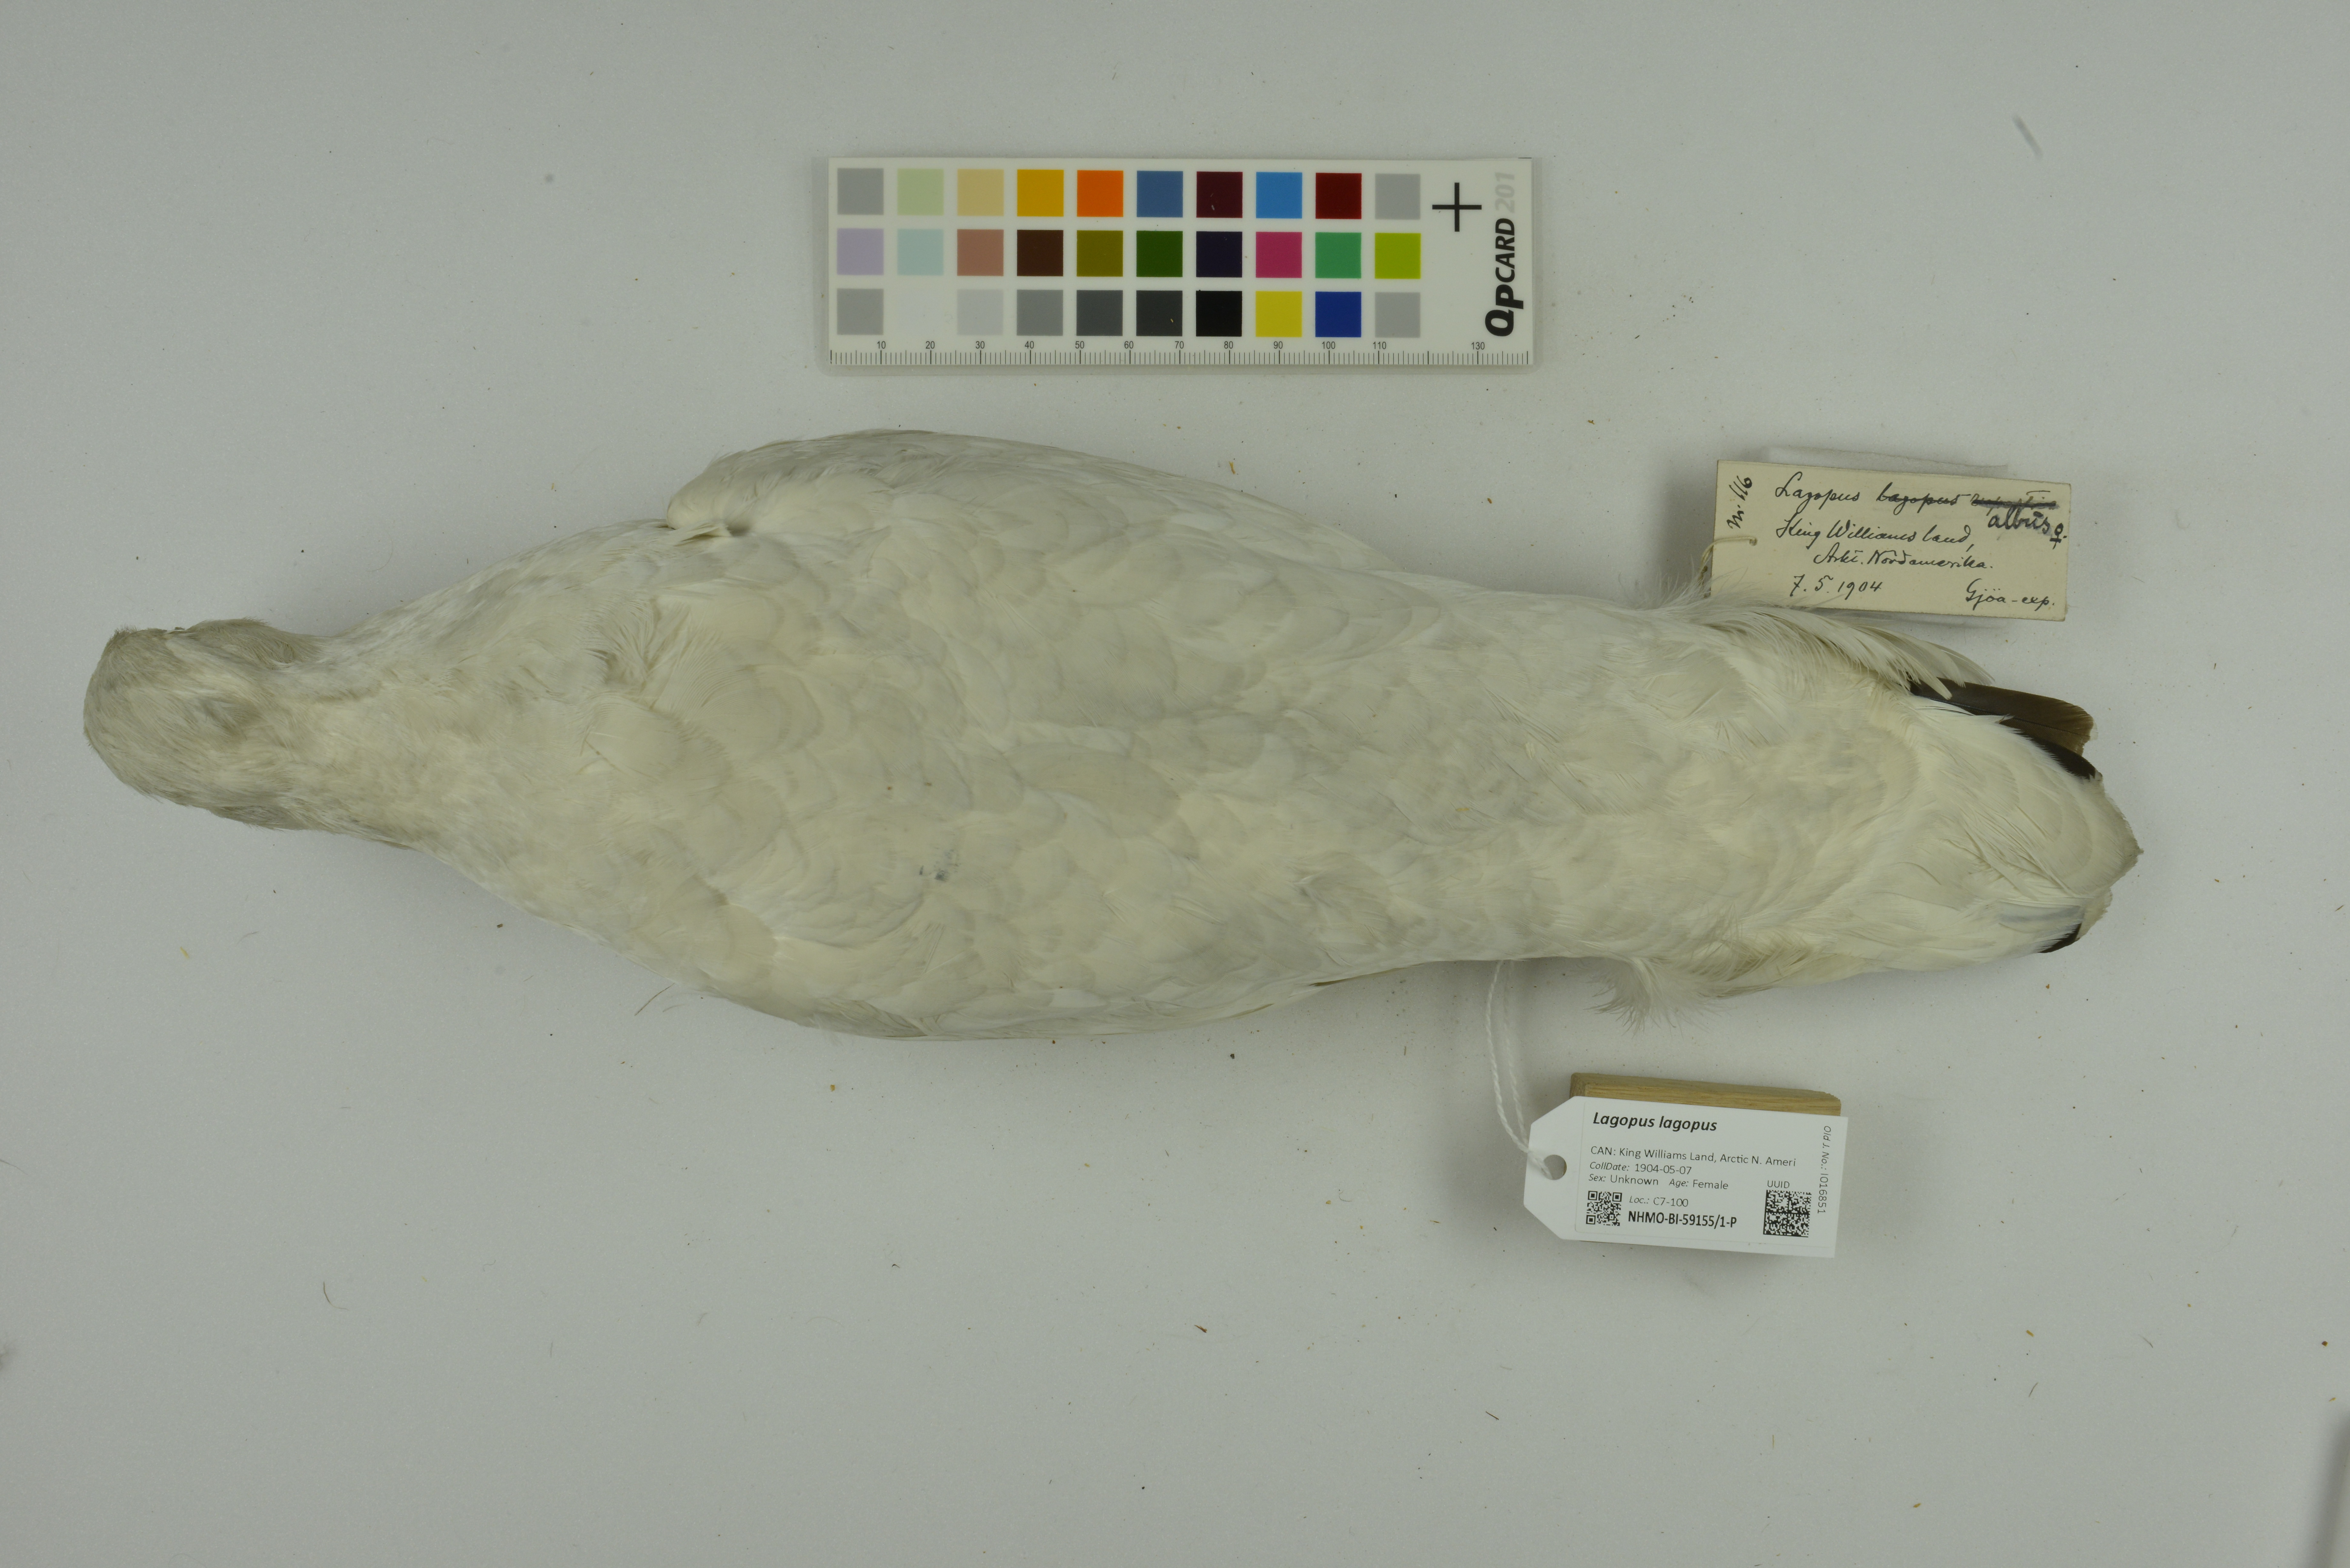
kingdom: Animalia
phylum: Chordata
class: Aves
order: Galliformes
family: Phasianidae
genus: Lagopus
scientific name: Lagopus lagopus
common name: Willow ptarmigan
